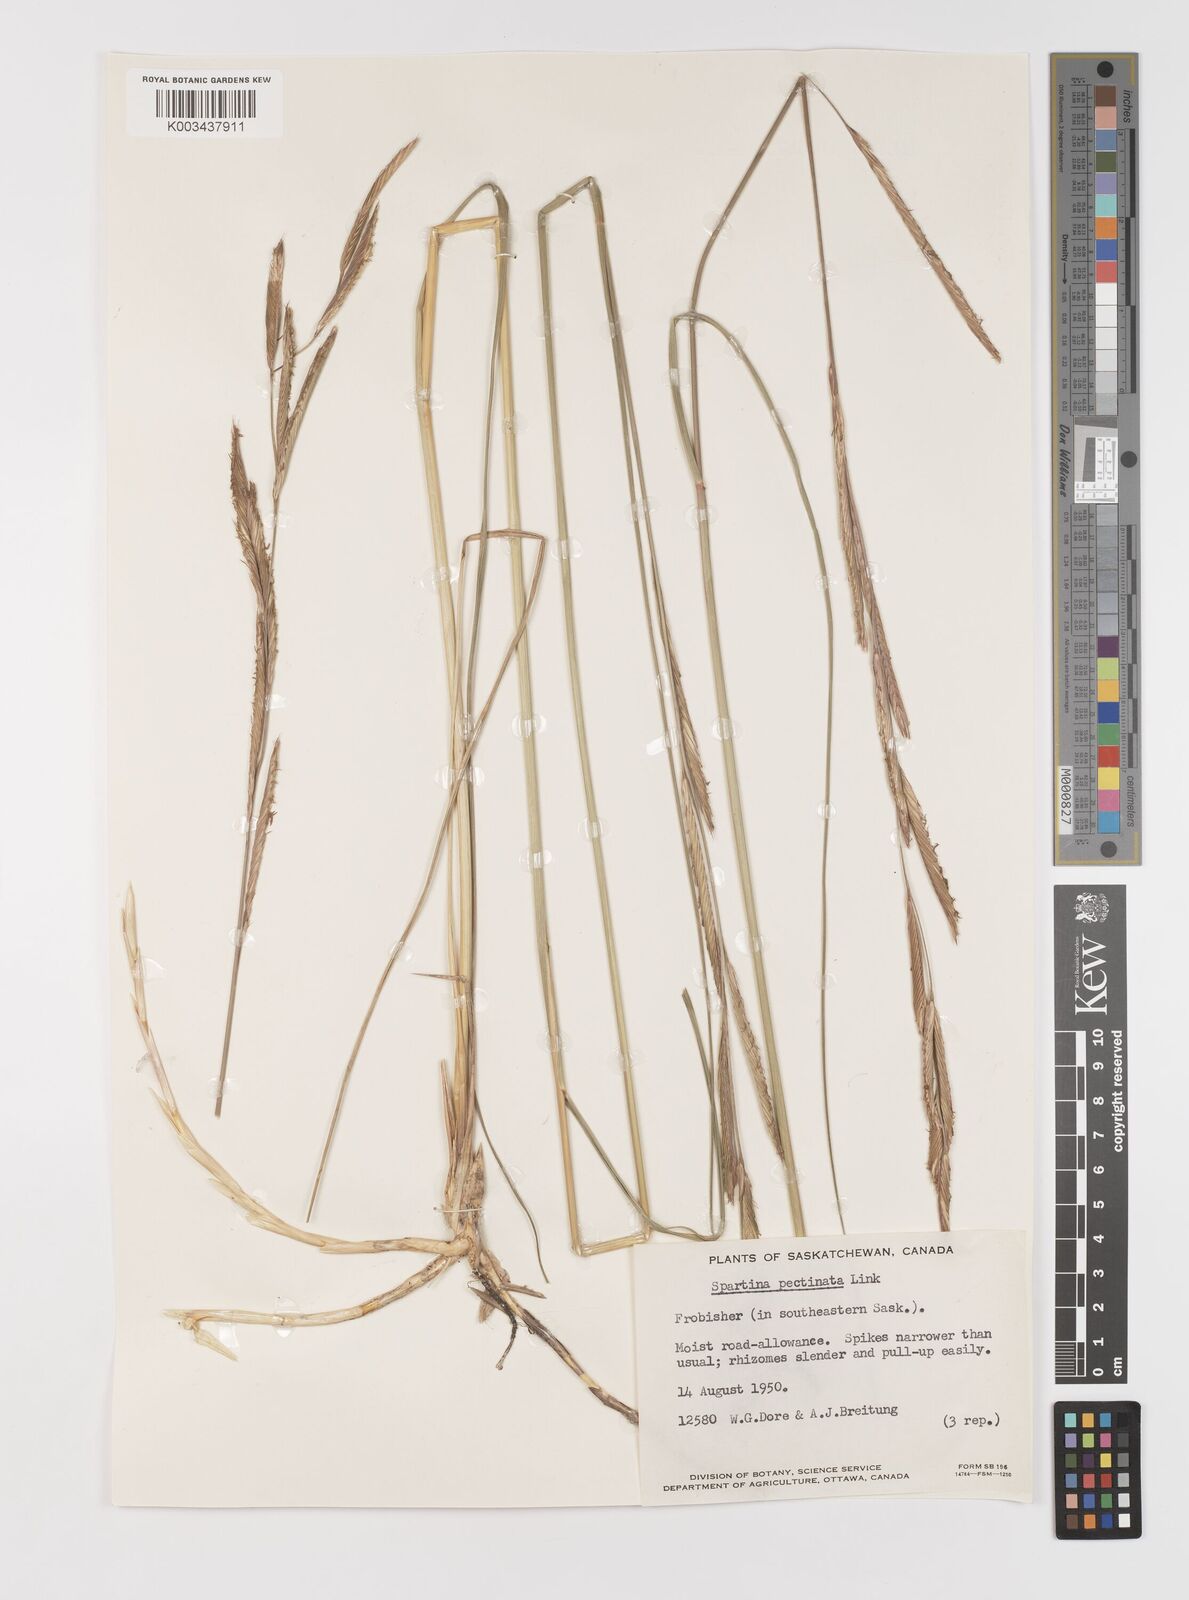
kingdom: Plantae
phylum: Tracheophyta
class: Liliopsida
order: Poales
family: Poaceae
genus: Sporobolus
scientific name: Sporobolus michauxianus
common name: Freshwater cordgrass
